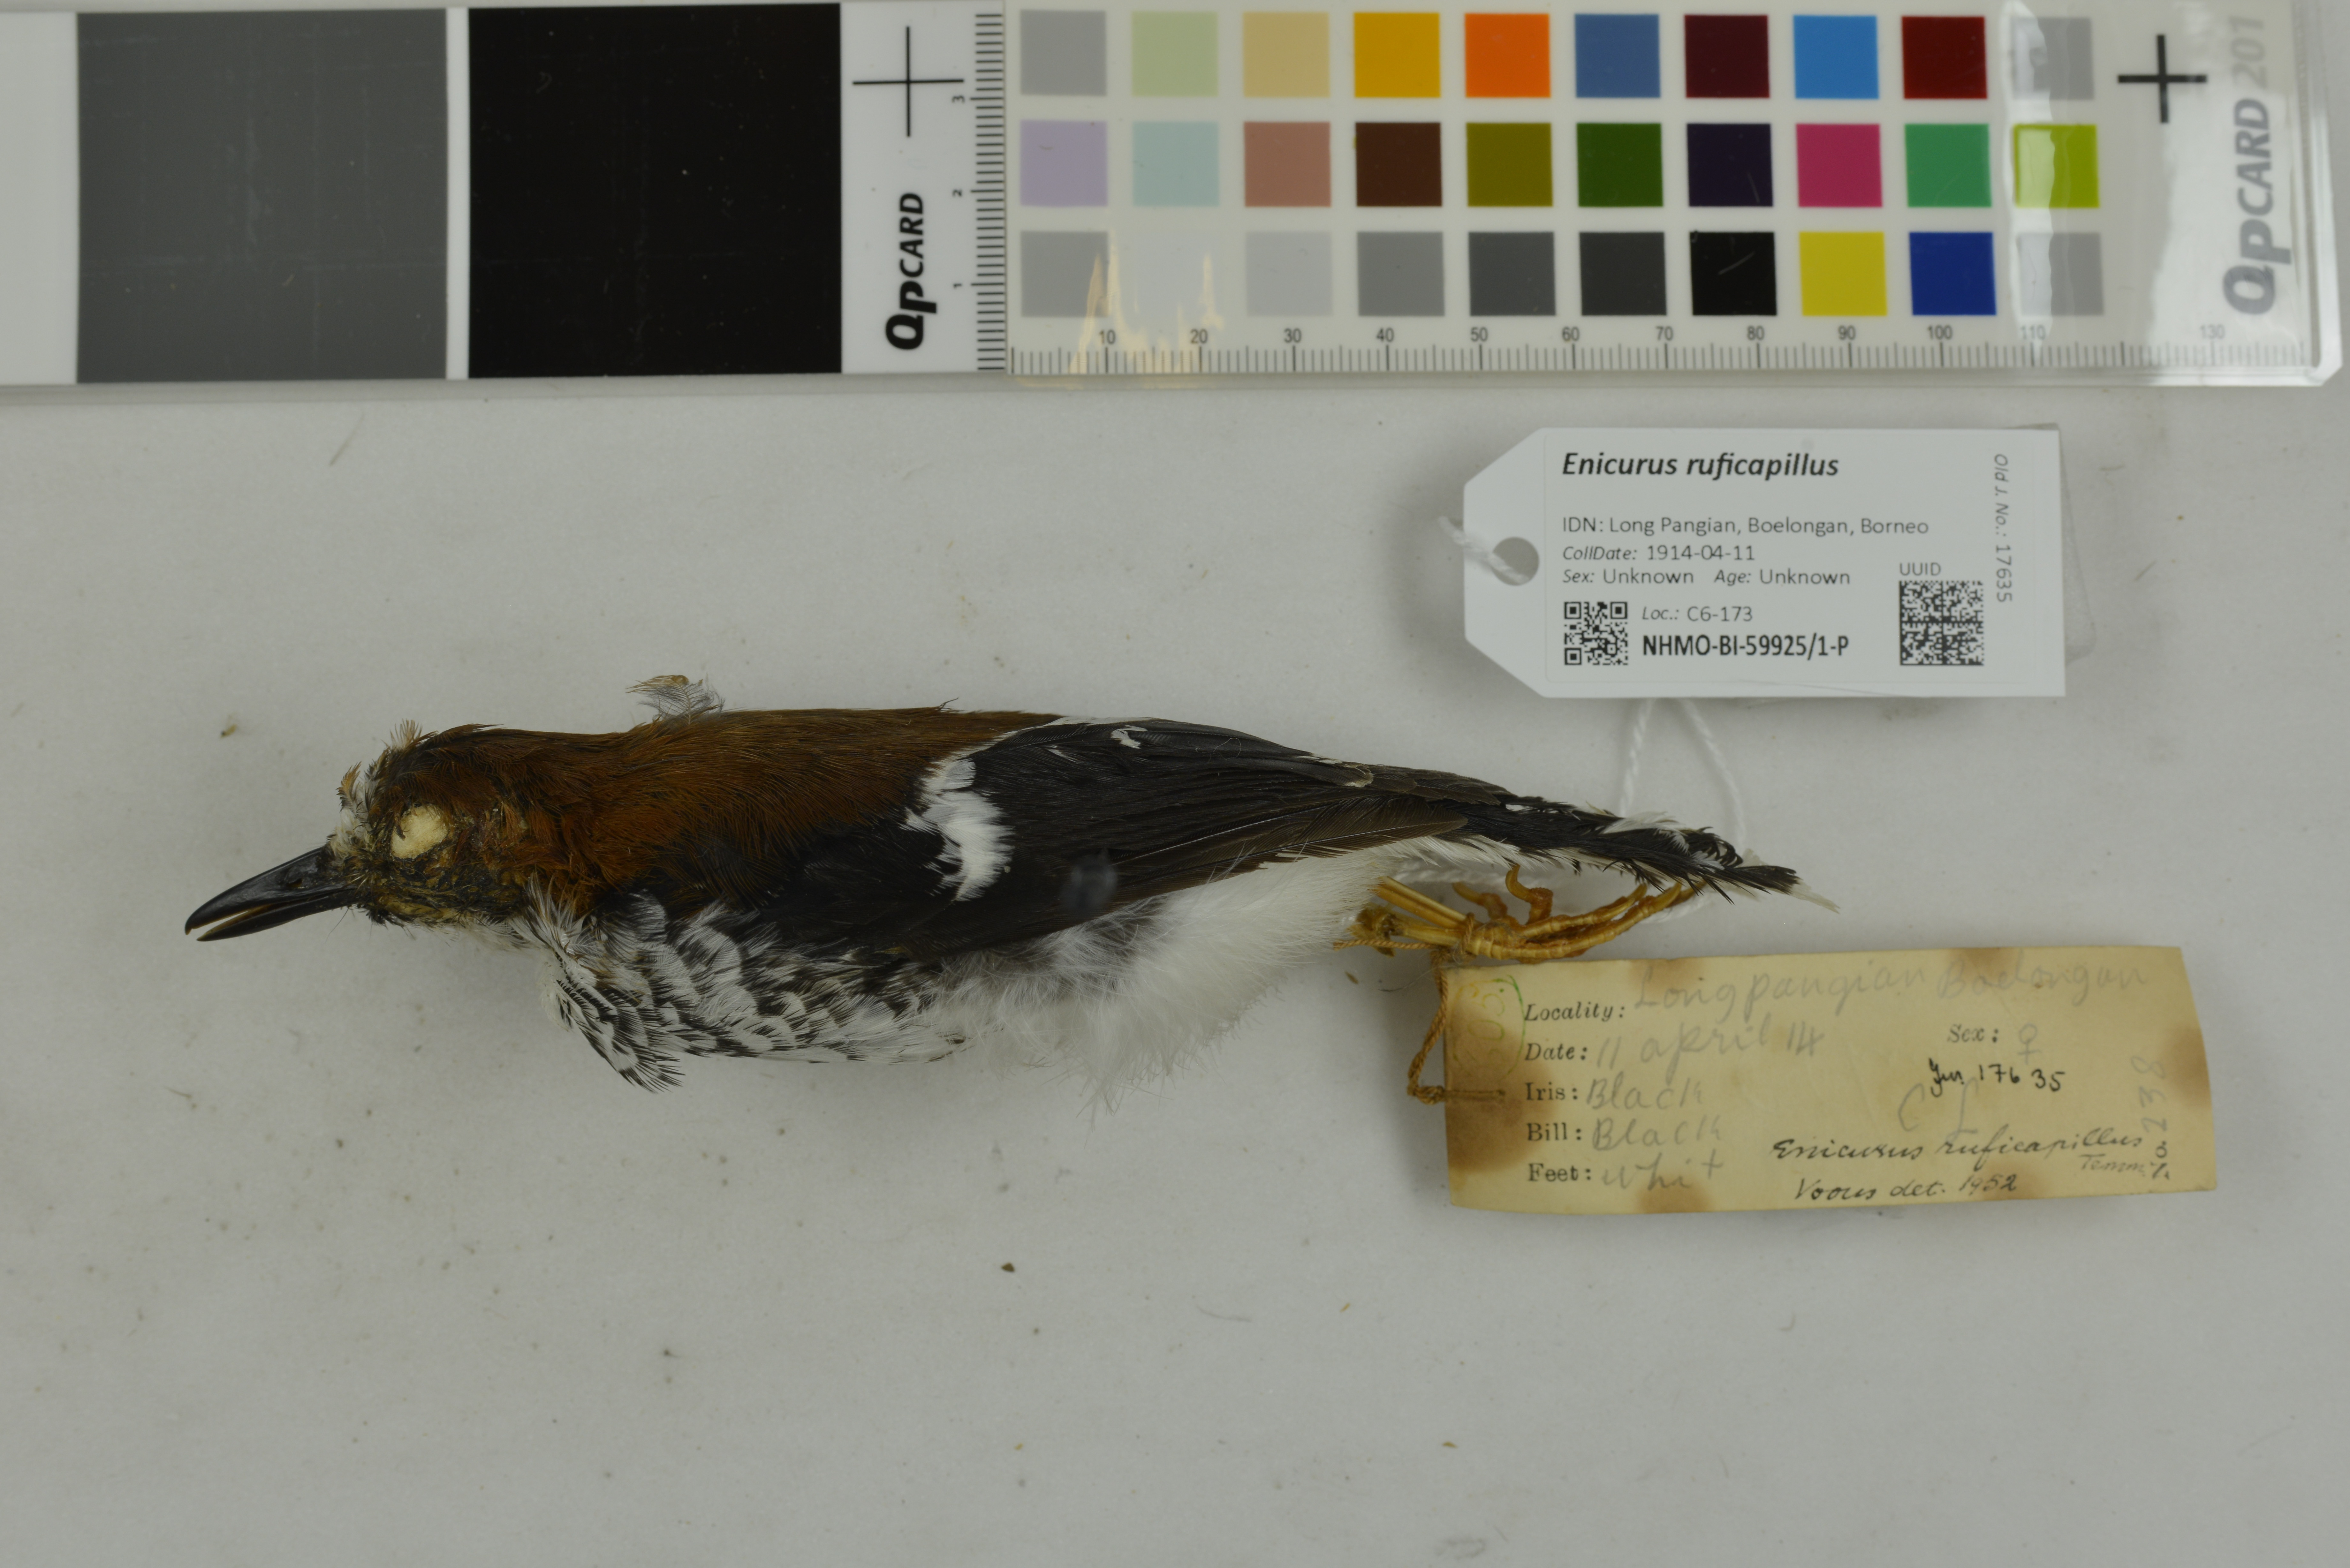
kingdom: Animalia
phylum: Chordata
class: Aves
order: Passeriformes
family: Muscicapidae
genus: Enicurus
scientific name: Enicurus ruficapillus
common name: Chestnut-naped forktail
